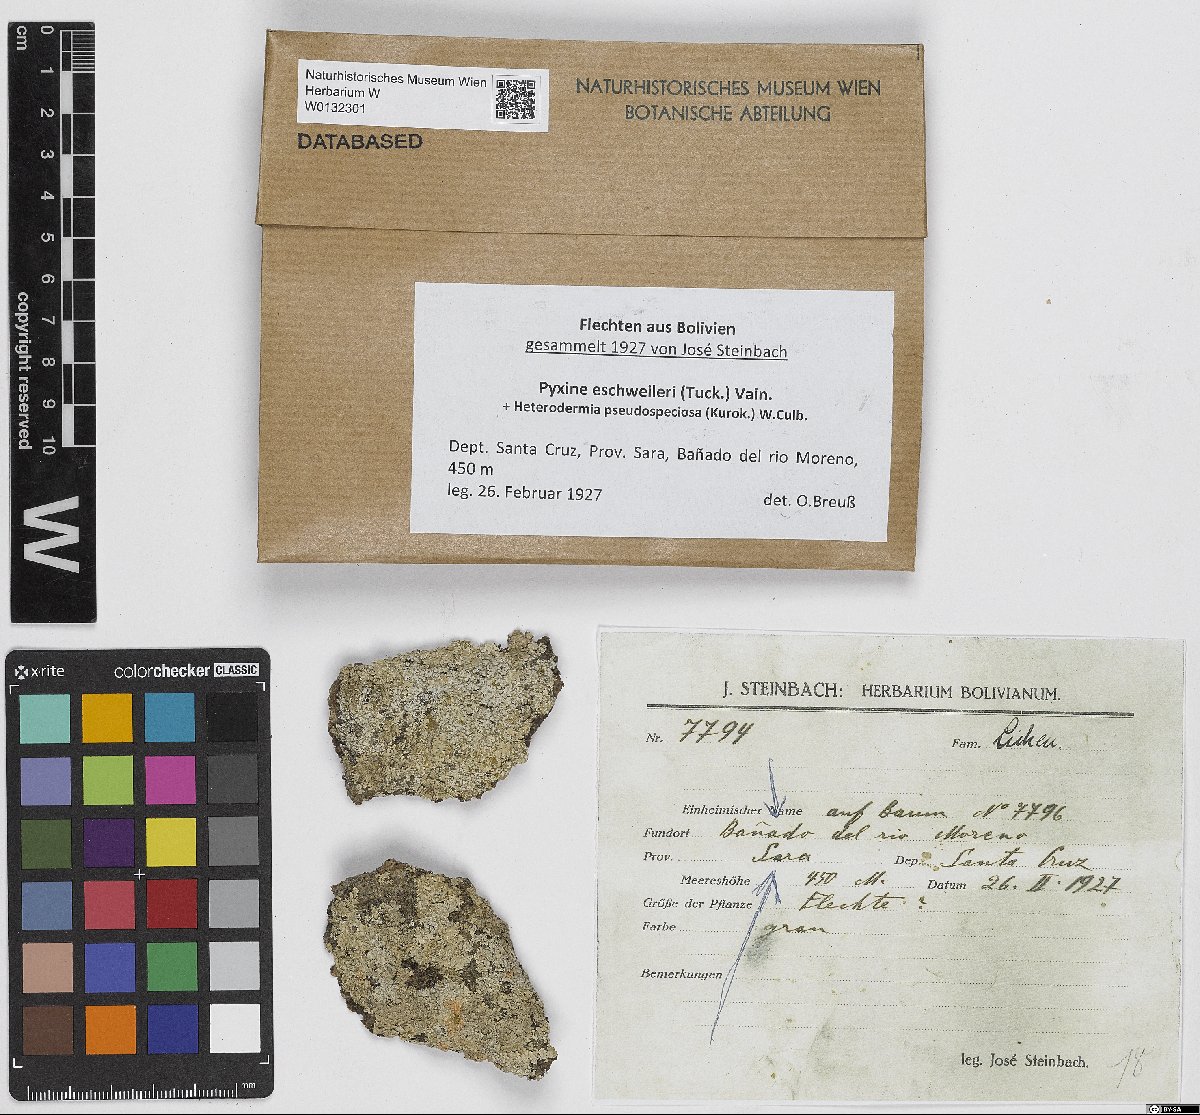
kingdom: Fungi
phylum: Ascomycota
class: Lecanoromycetes
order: Caliciales
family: Caliciaceae
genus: Pyxine
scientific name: Pyxine eschweileri
